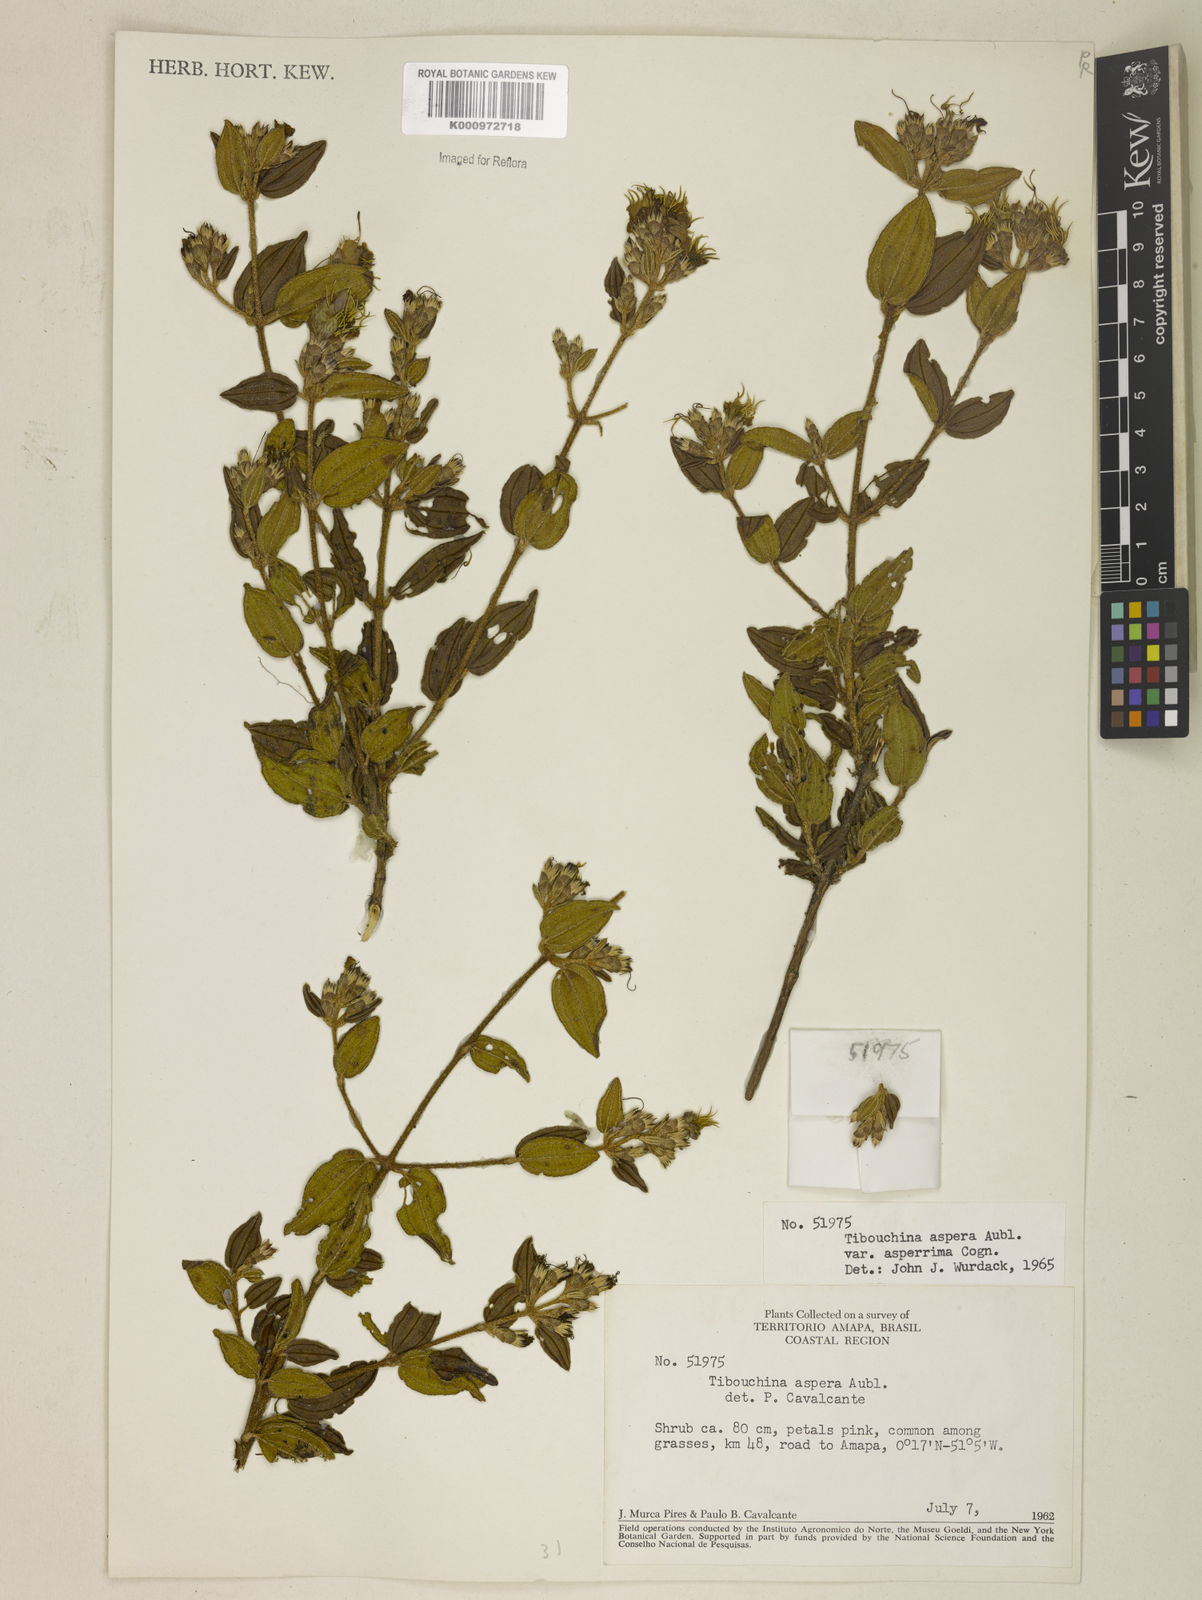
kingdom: Plantae
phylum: Tracheophyta
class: Magnoliopsida
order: Myrtales
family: Melastomataceae
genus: Tibouchina
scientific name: Tibouchina aspera
